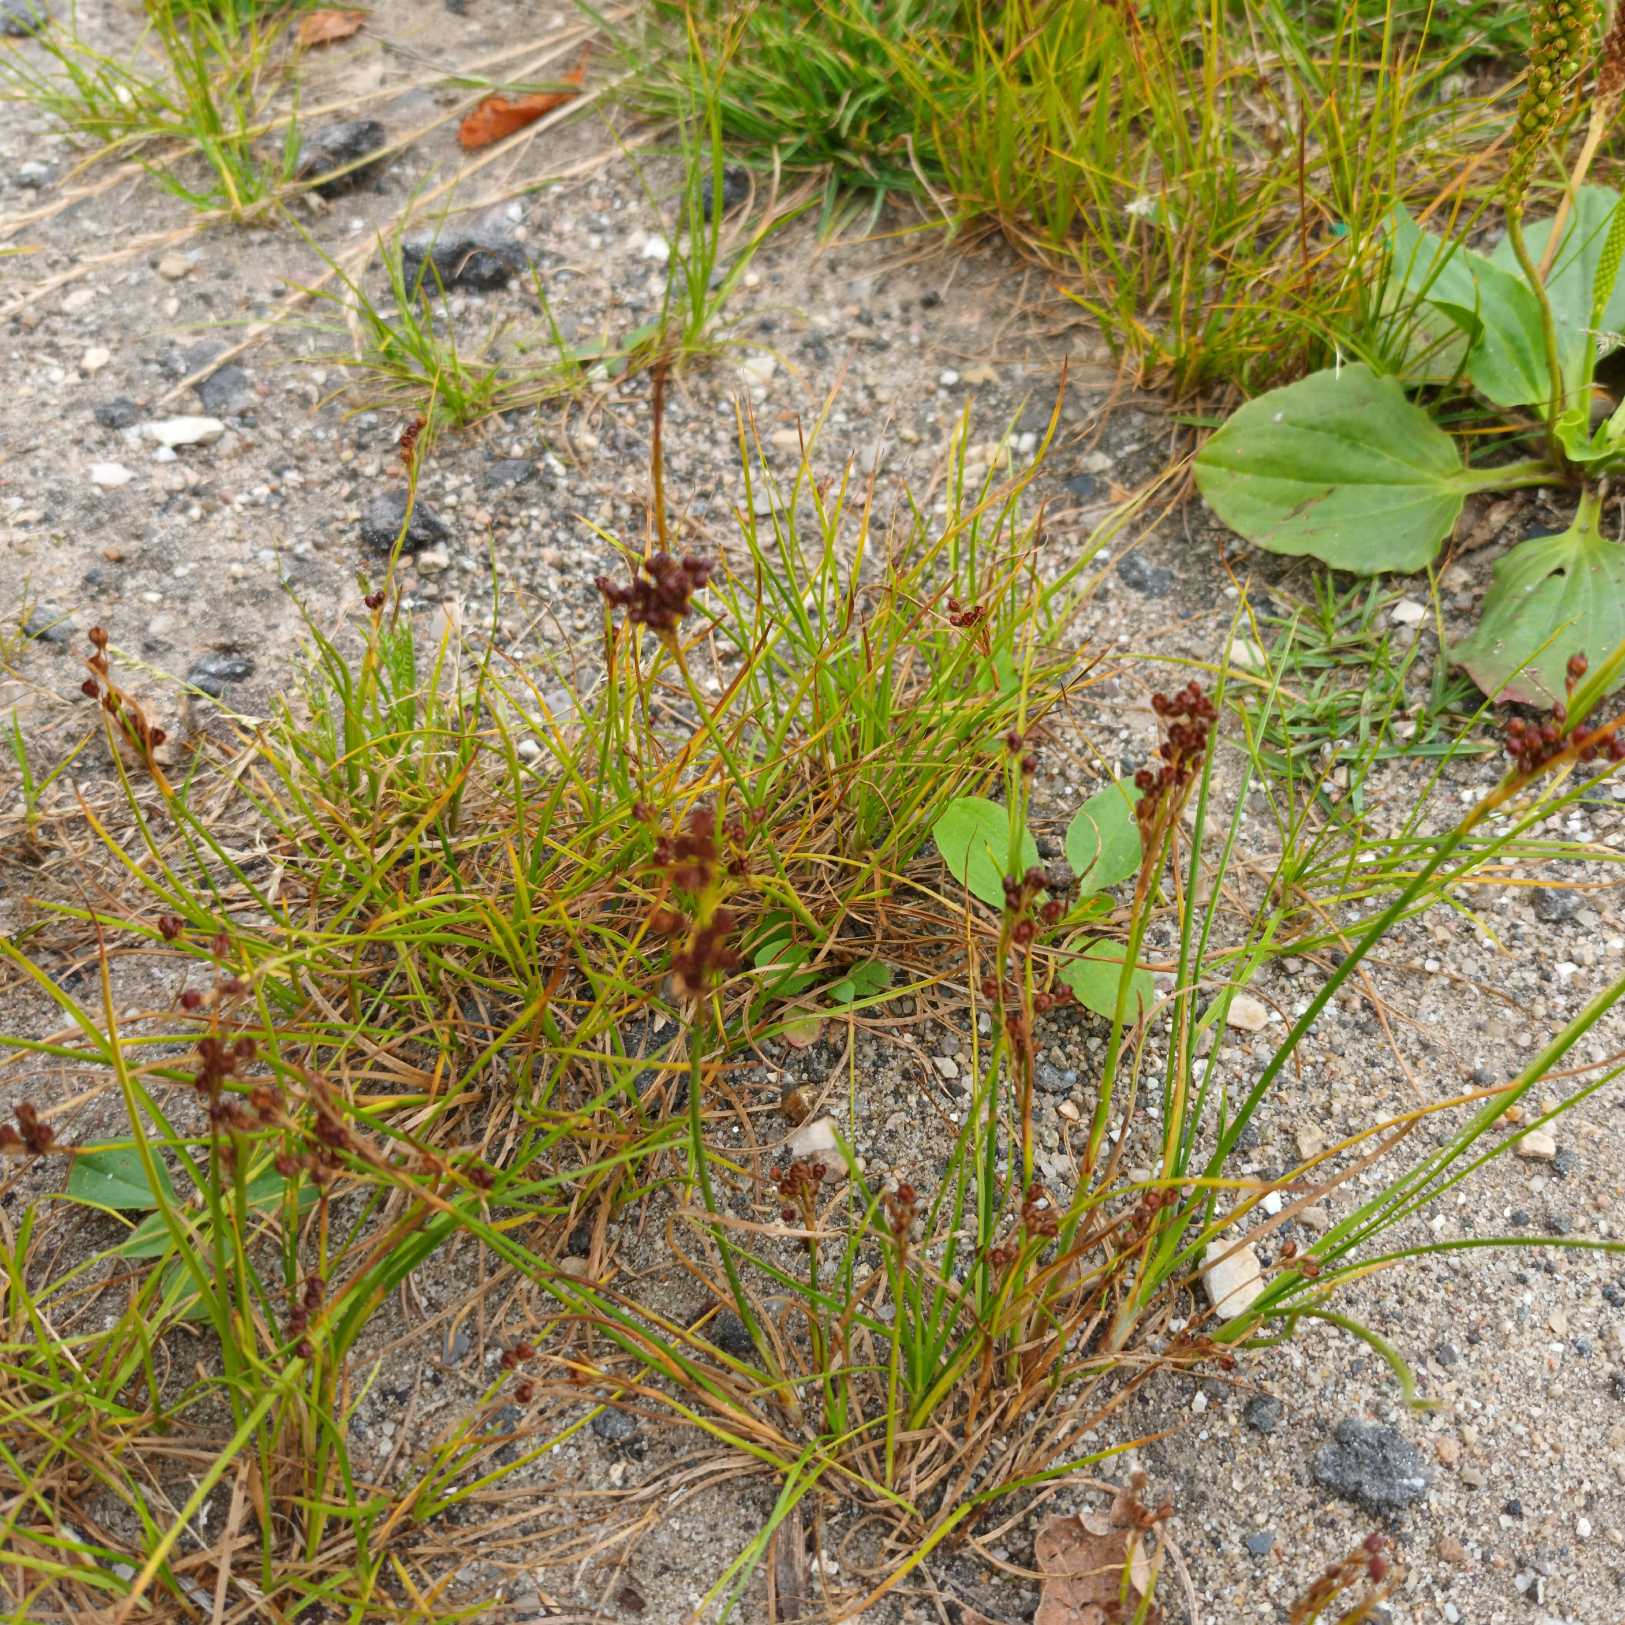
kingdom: Plantae
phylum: Tracheophyta
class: Liliopsida
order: Poales
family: Juncaceae
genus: Juncus
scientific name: Juncus compressus
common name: Fladstrået siv
